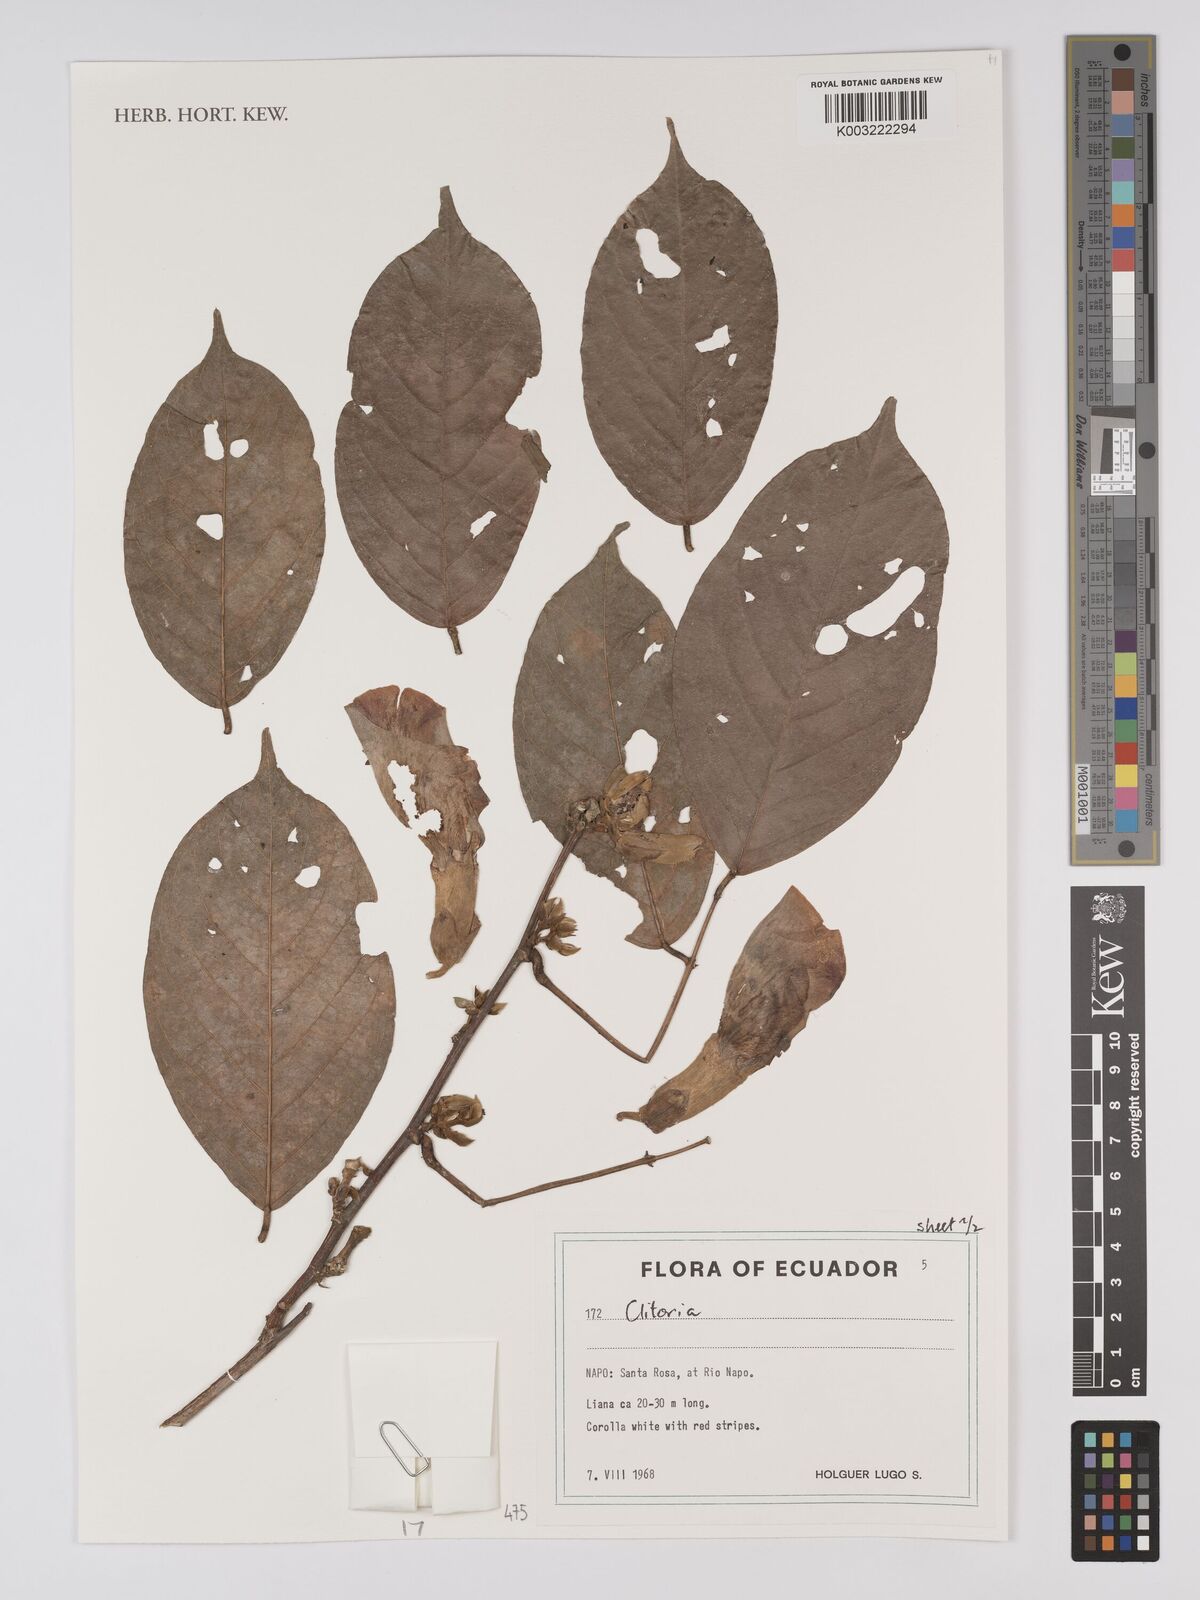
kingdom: Plantae
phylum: Tracheophyta
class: Magnoliopsida
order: Fabales
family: Fabaceae
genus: Clitoria
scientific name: Clitoria
